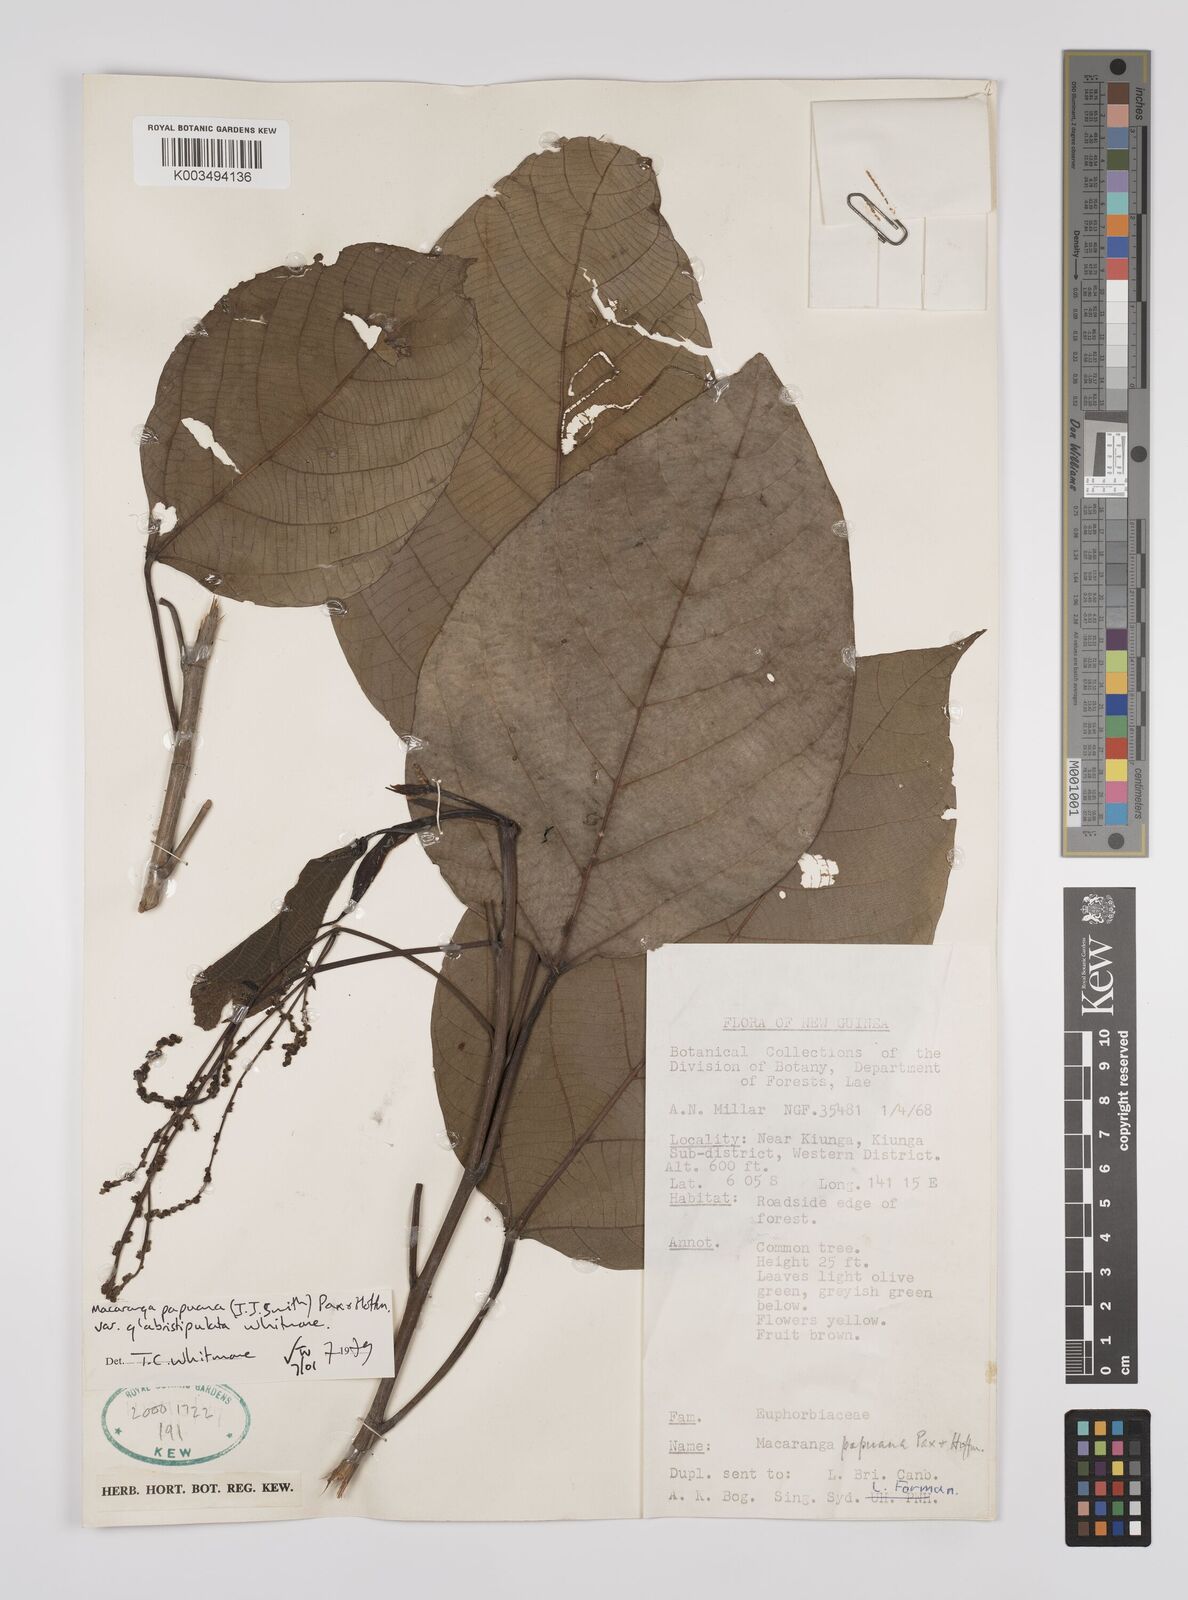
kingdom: Plantae
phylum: Tracheophyta
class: Magnoliopsida
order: Malpighiales
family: Euphorbiaceae
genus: Macaranga
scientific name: Macaranga aleuritoides
